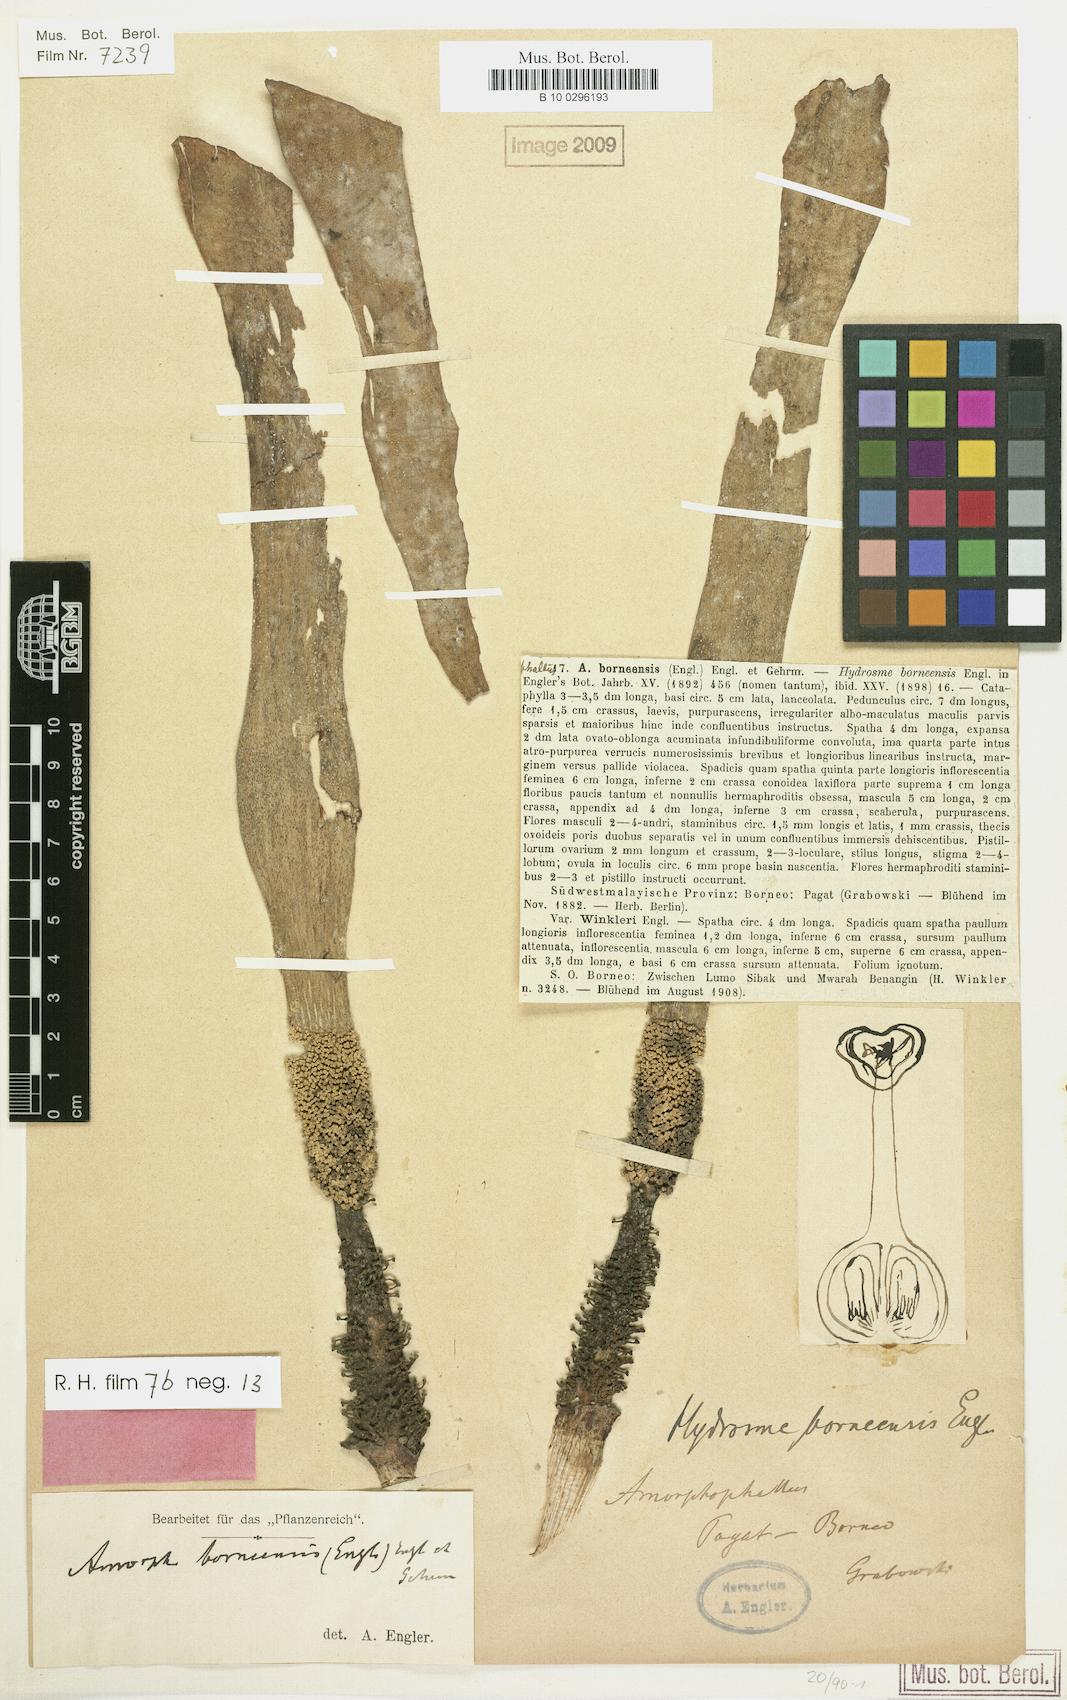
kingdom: Plantae
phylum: Tracheophyta
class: Liliopsida
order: Alismatales
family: Araceae
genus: Amorphophallus
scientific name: Amorphophallus borneensis
